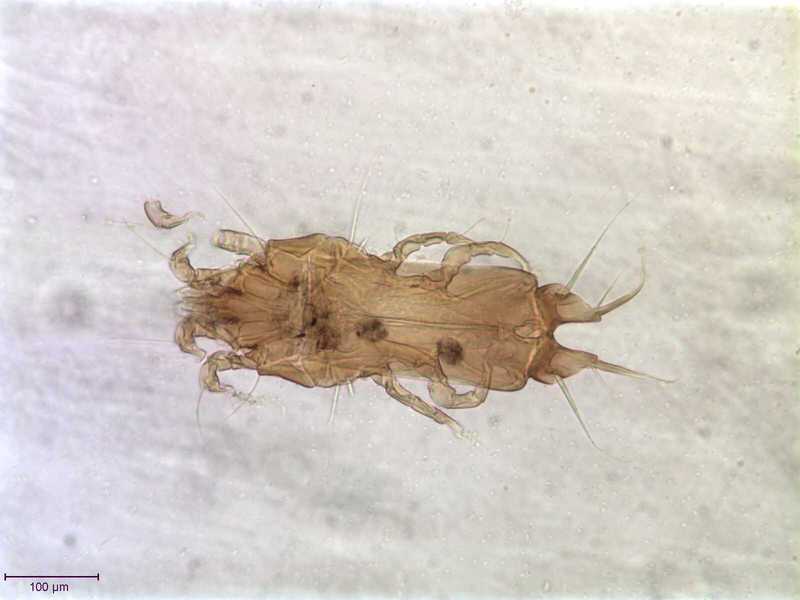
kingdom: Animalia
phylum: Arthropoda
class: Arachnida
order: Sarcoptiformes
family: Proctophyllodidae
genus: Proctophyllodes
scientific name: Proctophyllodes anthi
